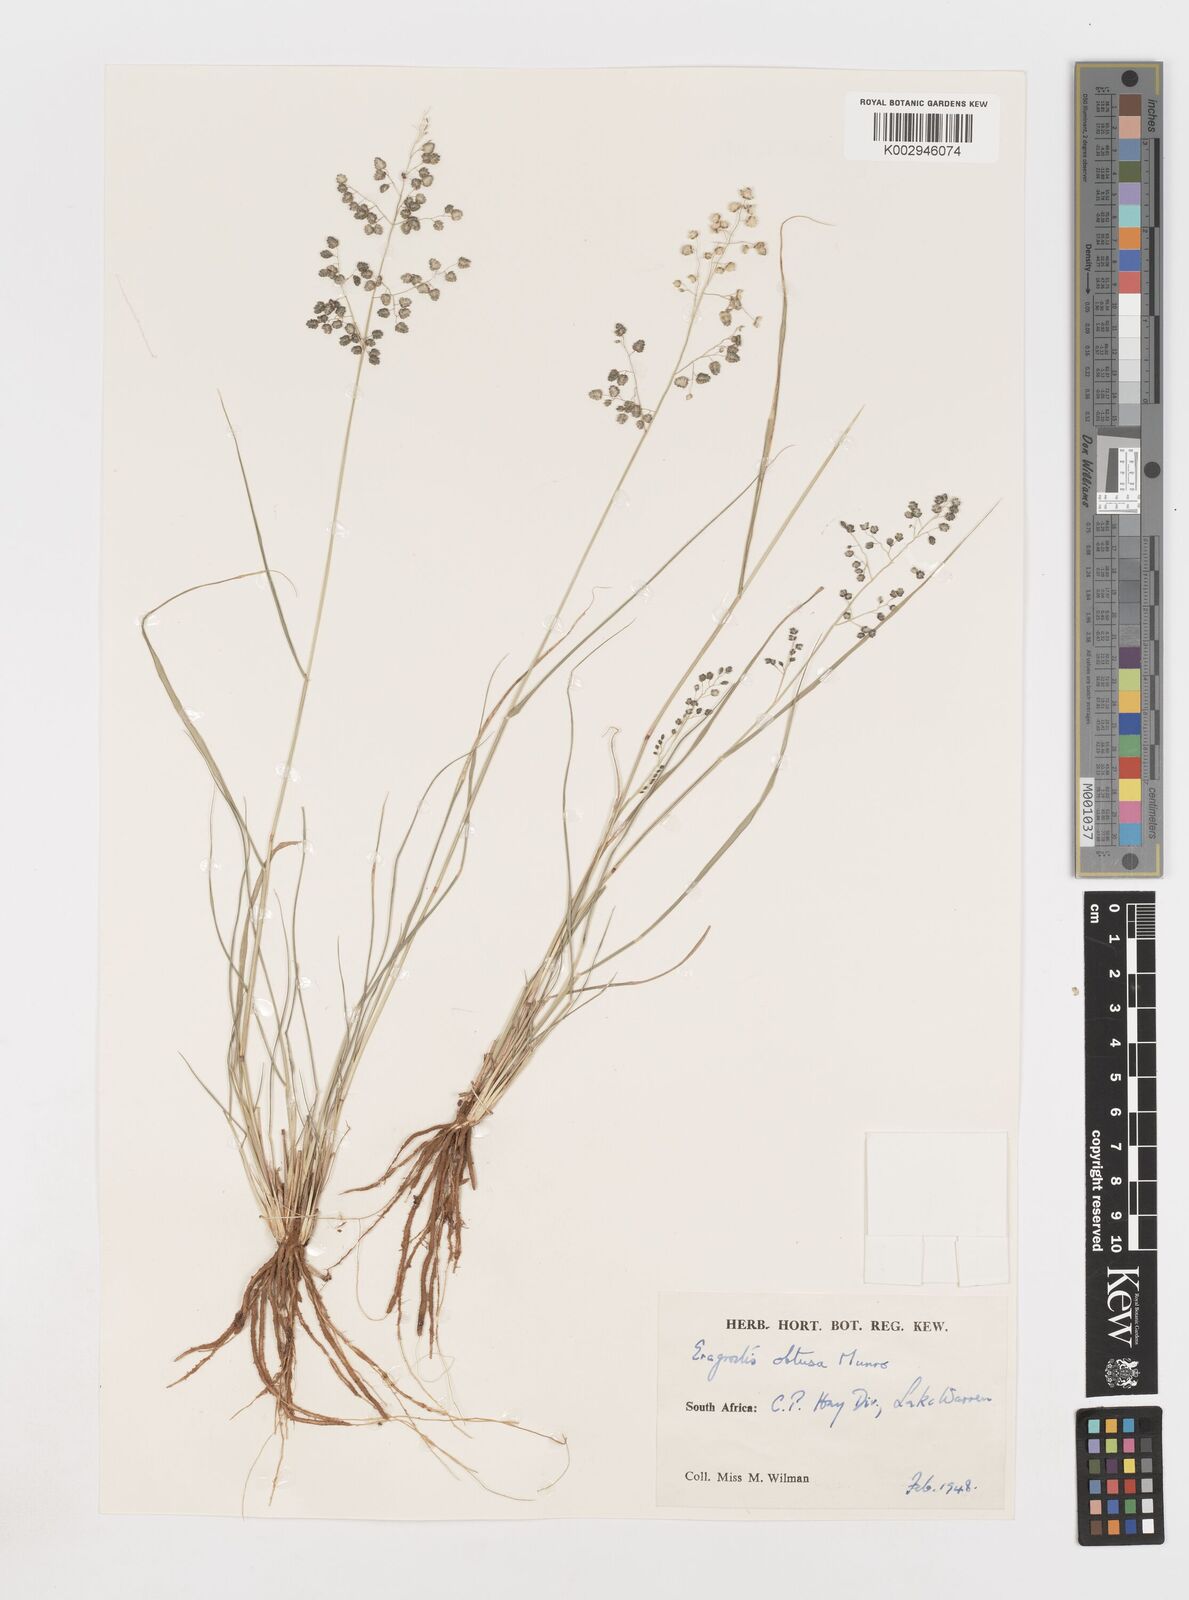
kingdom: Plantae
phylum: Tracheophyta
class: Liliopsida
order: Poales
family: Poaceae
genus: Eragrostis
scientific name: Eragrostis obtusa
